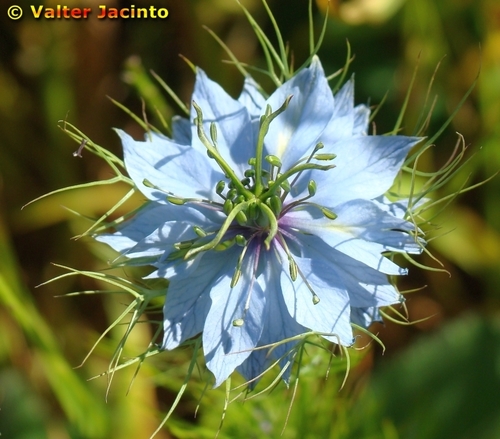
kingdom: Plantae
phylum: Tracheophyta
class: Magnoliopsida
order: Ranunculales
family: Ranunculaceae
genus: Nigella
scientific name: Nigella damascena
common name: Love-in-a-mist
